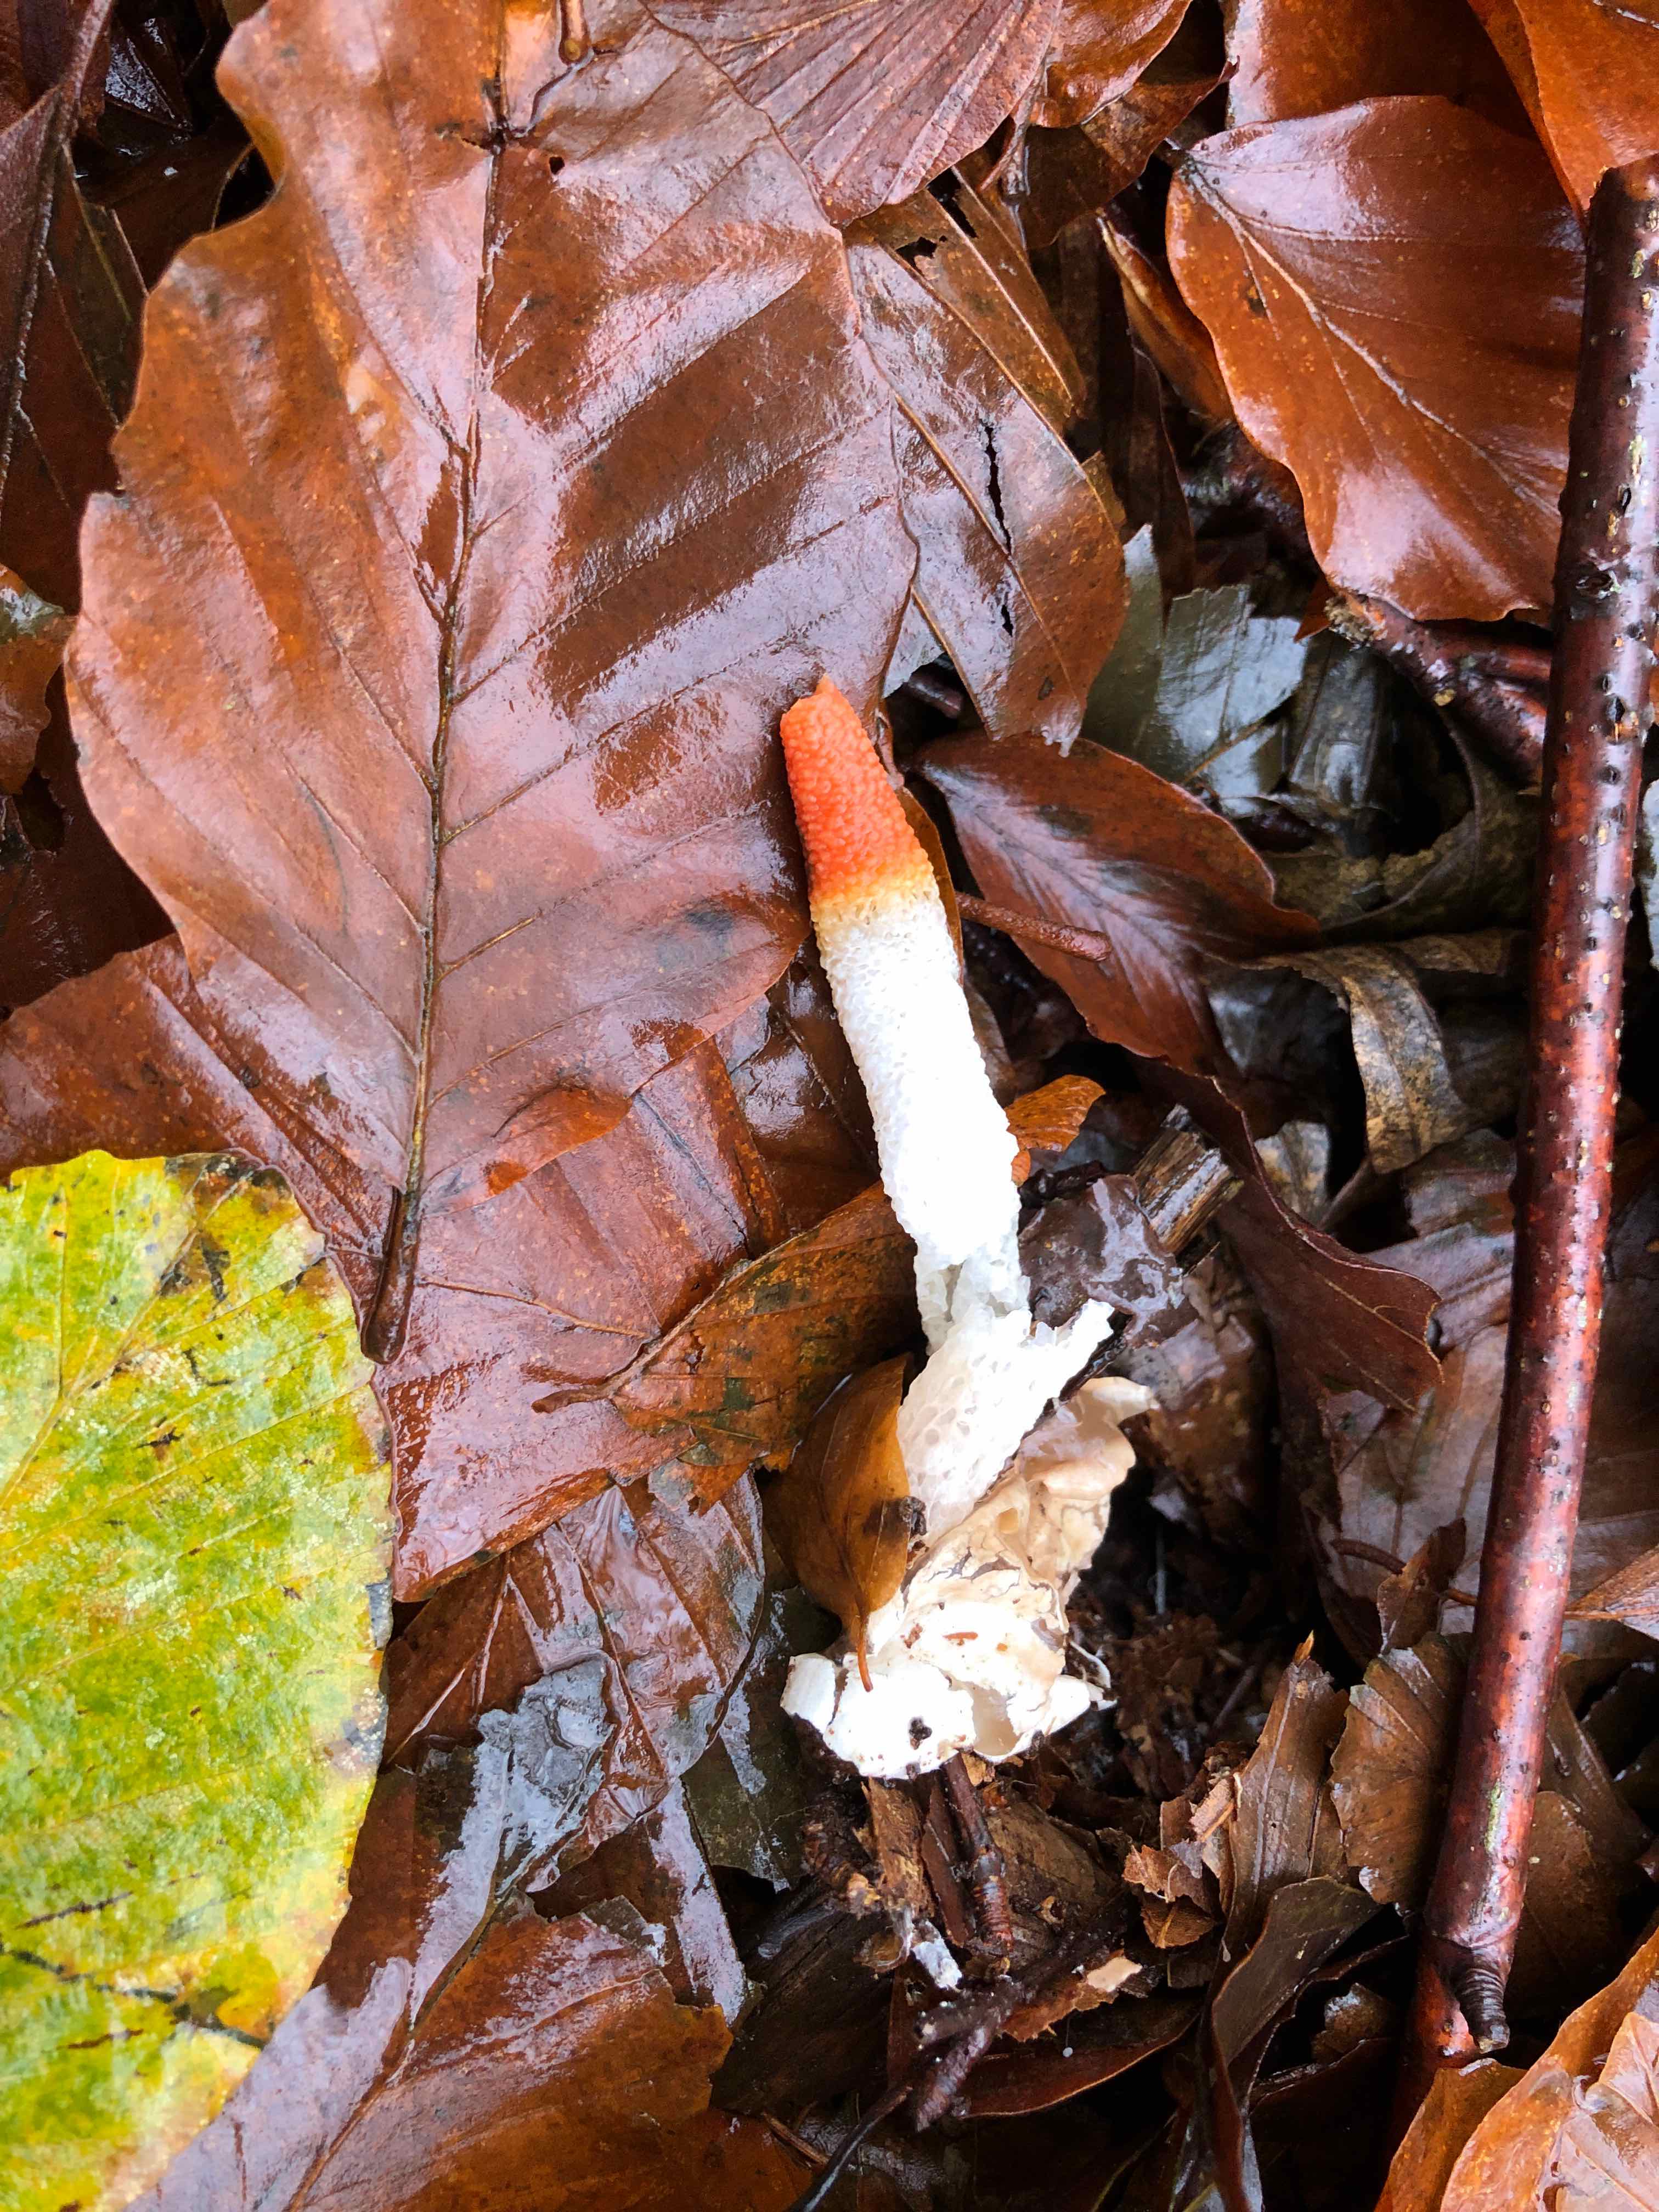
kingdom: Fungi
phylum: Basidiomycota
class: Agaricomycetes
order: Phallales
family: Phallaceae
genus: Mutinus
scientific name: Mutinus caninus
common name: hunde-stinksvamp
